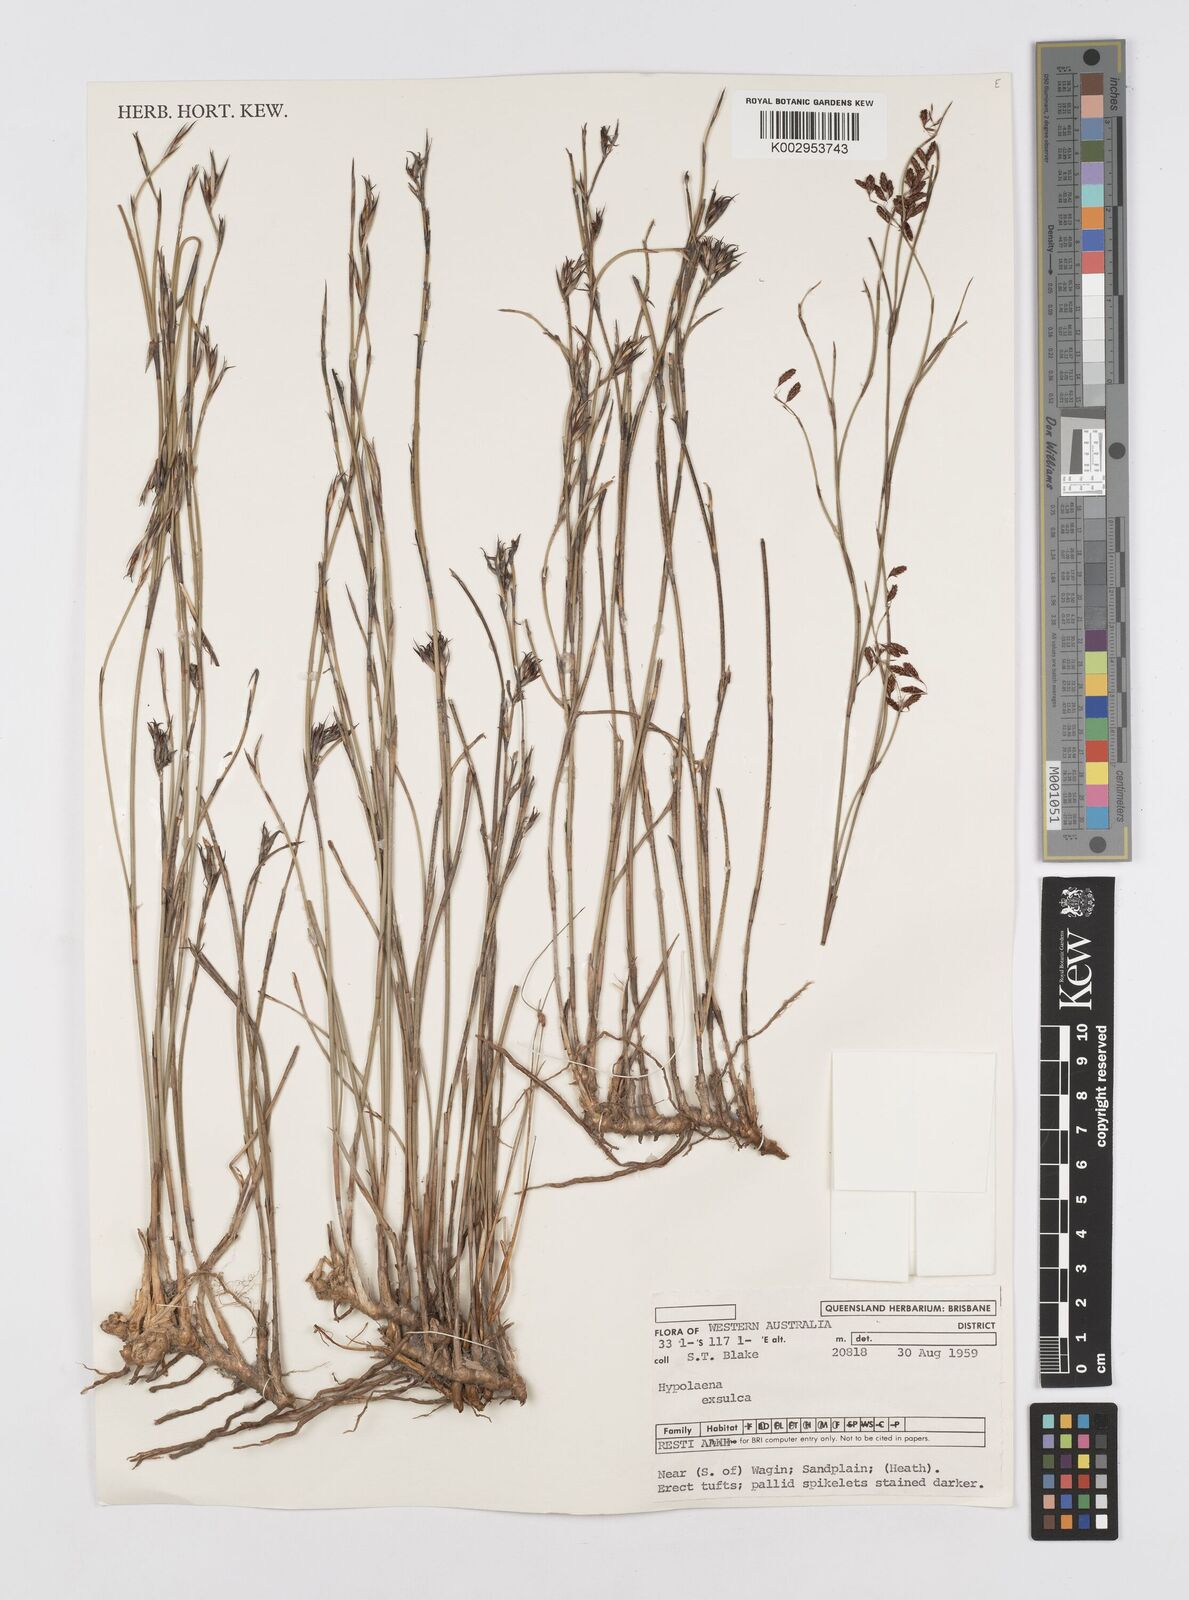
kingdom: Plantae
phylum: Tracheophyta
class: Liliopsida
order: Poales
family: Restionaceae
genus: Hypolaena
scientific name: Hypolaena exsulca
